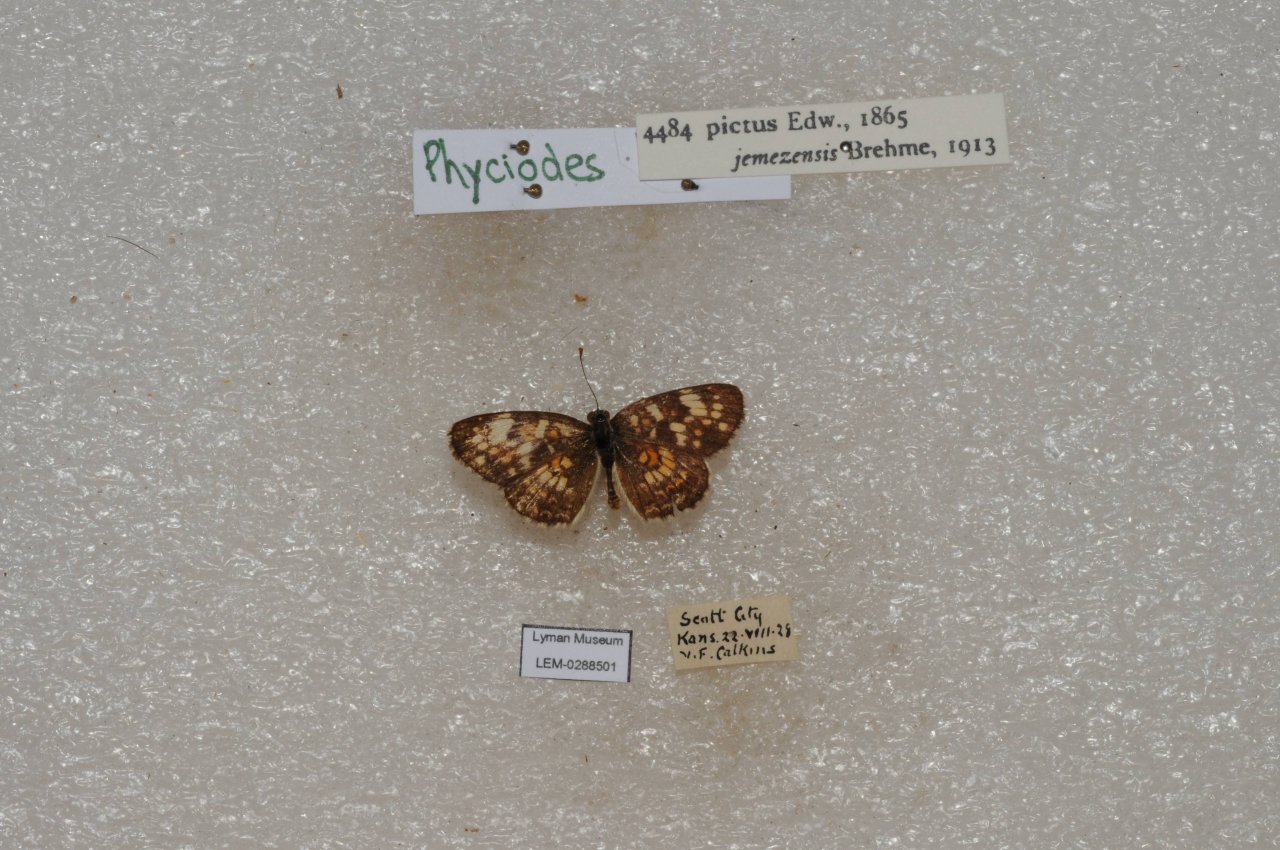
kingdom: Animalia
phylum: Arthropoda
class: Insecta
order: Lepidoptera
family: Nymphalidae
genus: Phyciodes
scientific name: Phyciodes picta
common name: Painted Crescent
